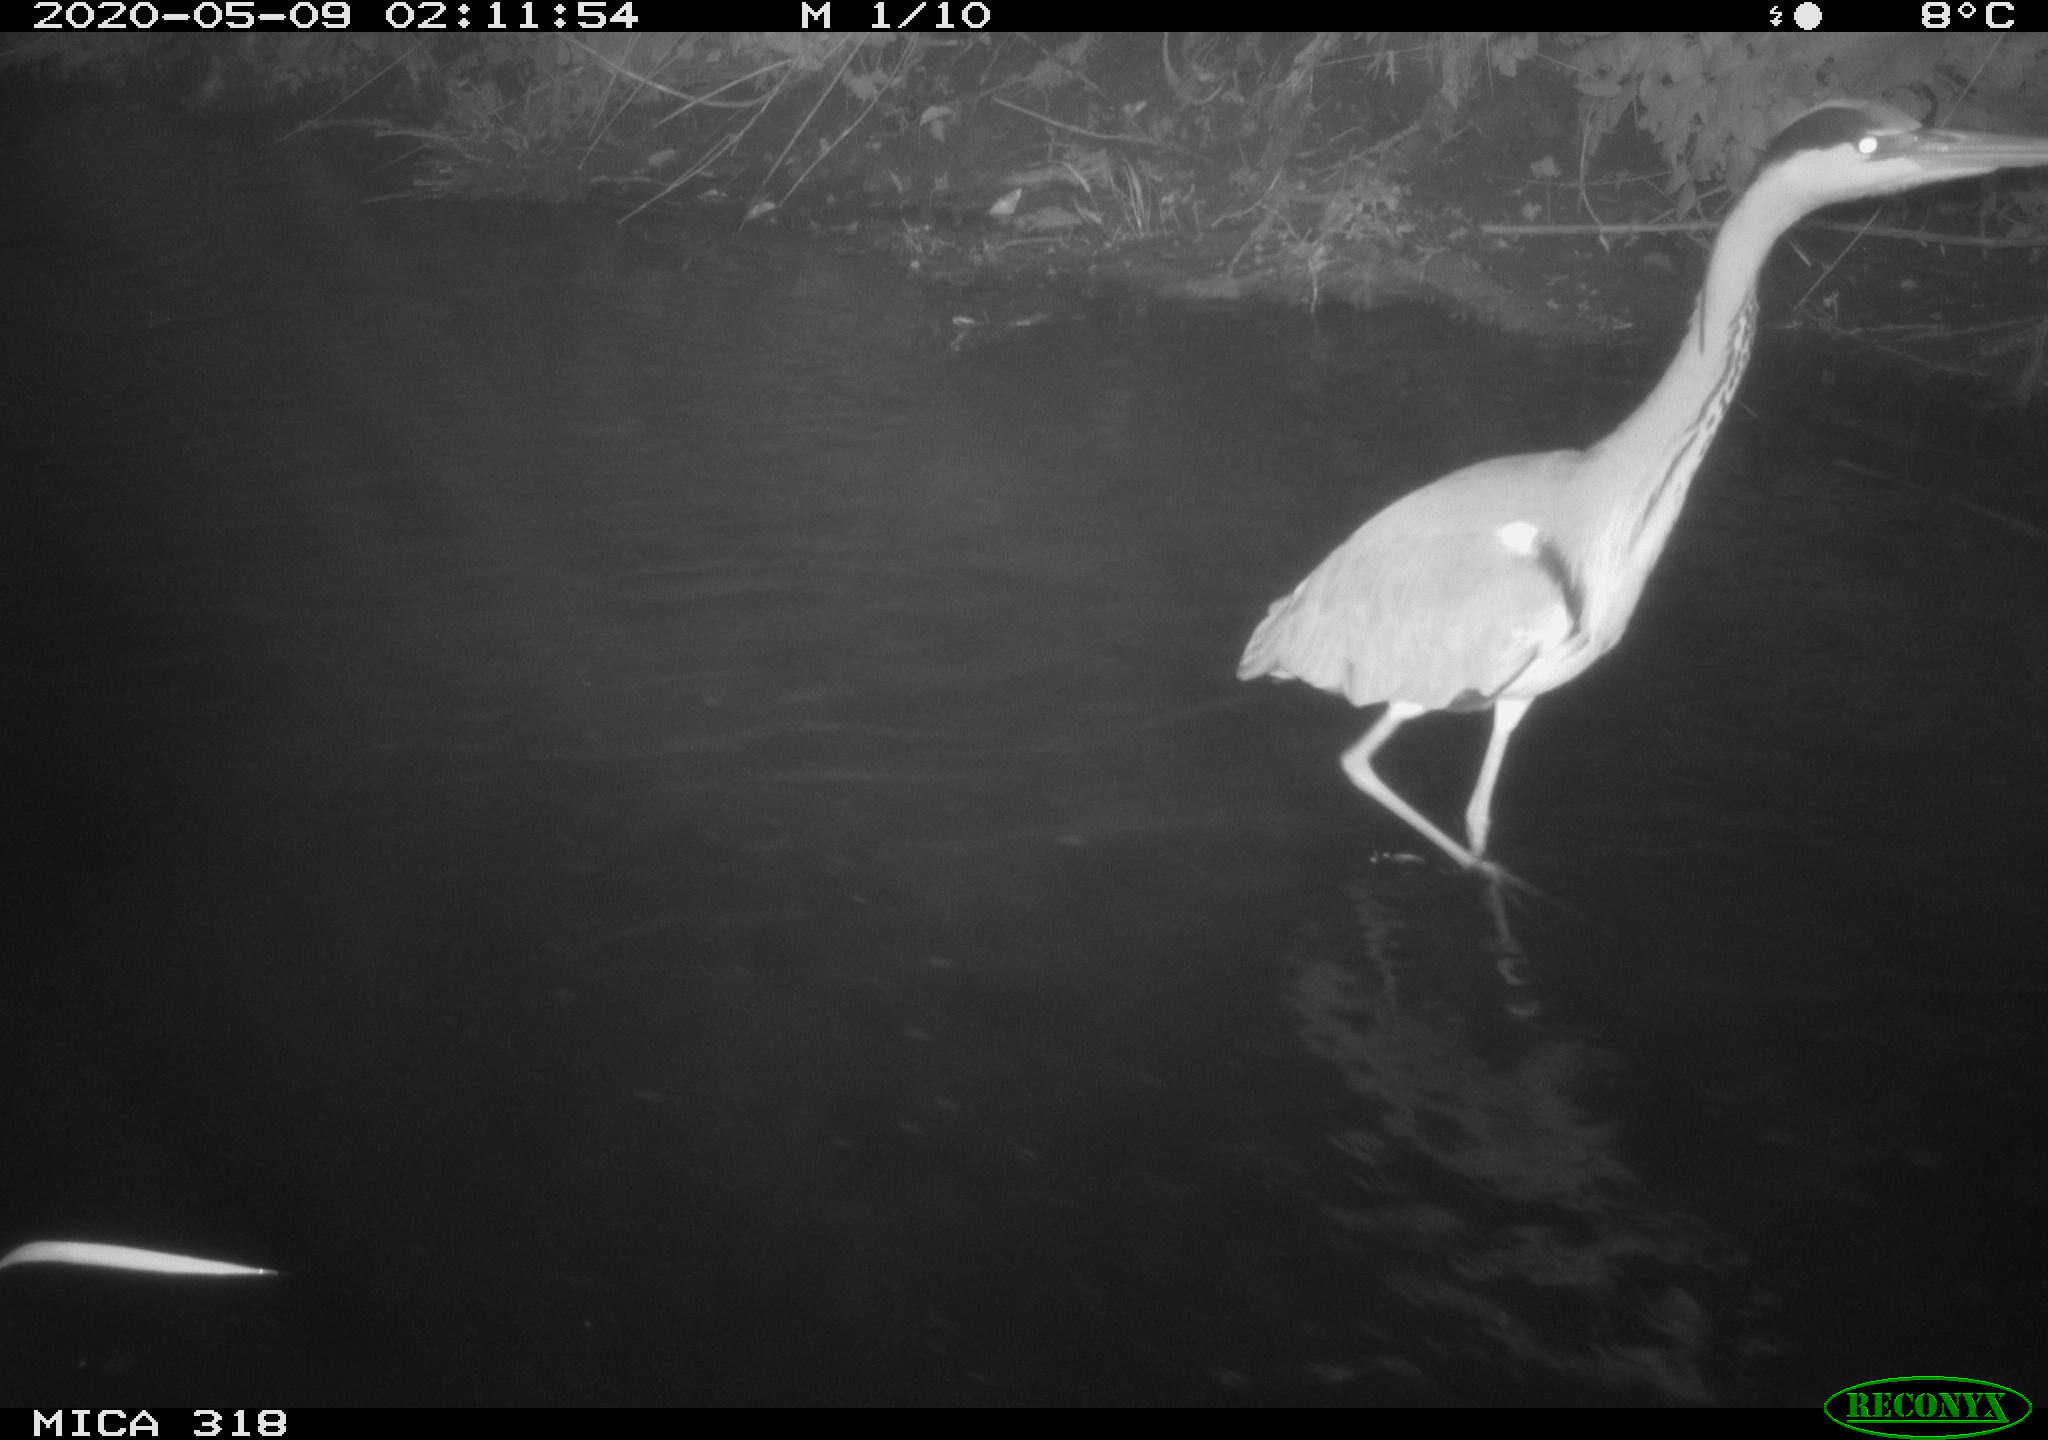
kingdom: Animalia
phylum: Chordata
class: Aves
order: Pelecaniformes
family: Ardeidae
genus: Ardea
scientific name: Ardea cinerea
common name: Grey heron
